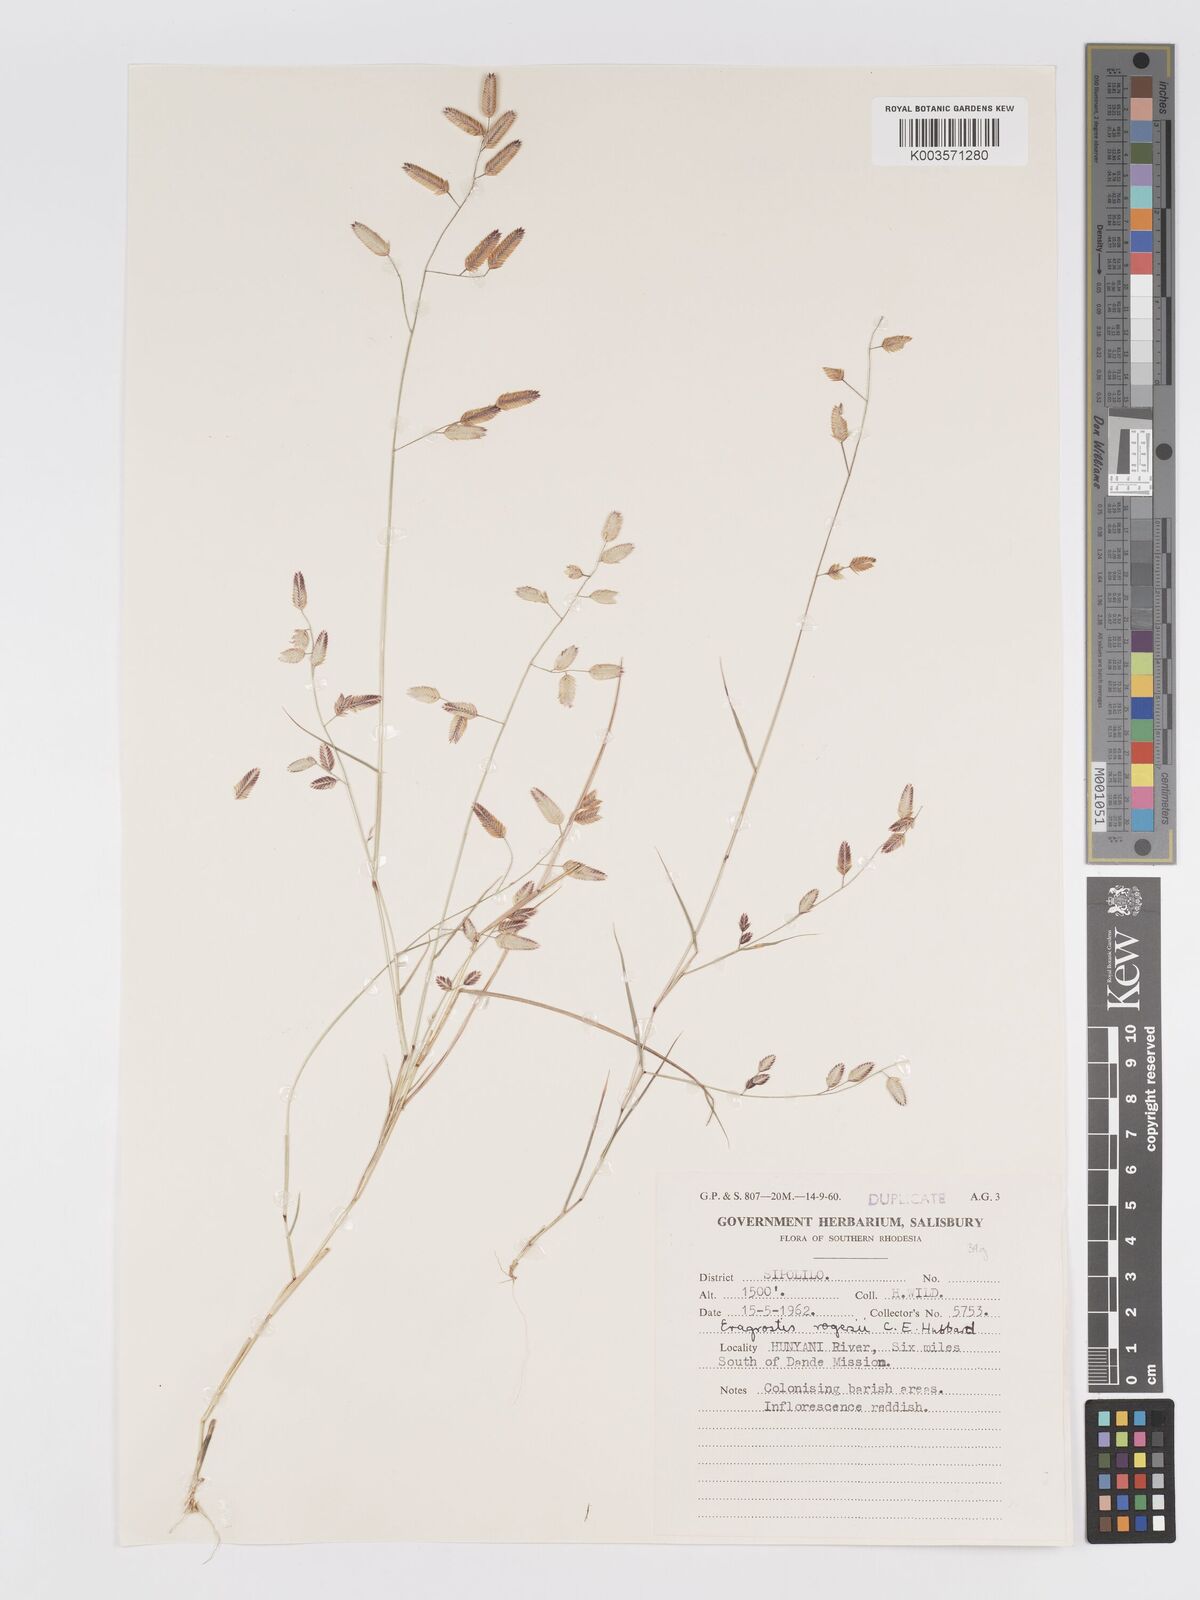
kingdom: Plantae
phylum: Tracheophyta
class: Liliopsida
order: Poales
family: Poaceae
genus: Eragrostis
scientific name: Eragrostis rogersii
